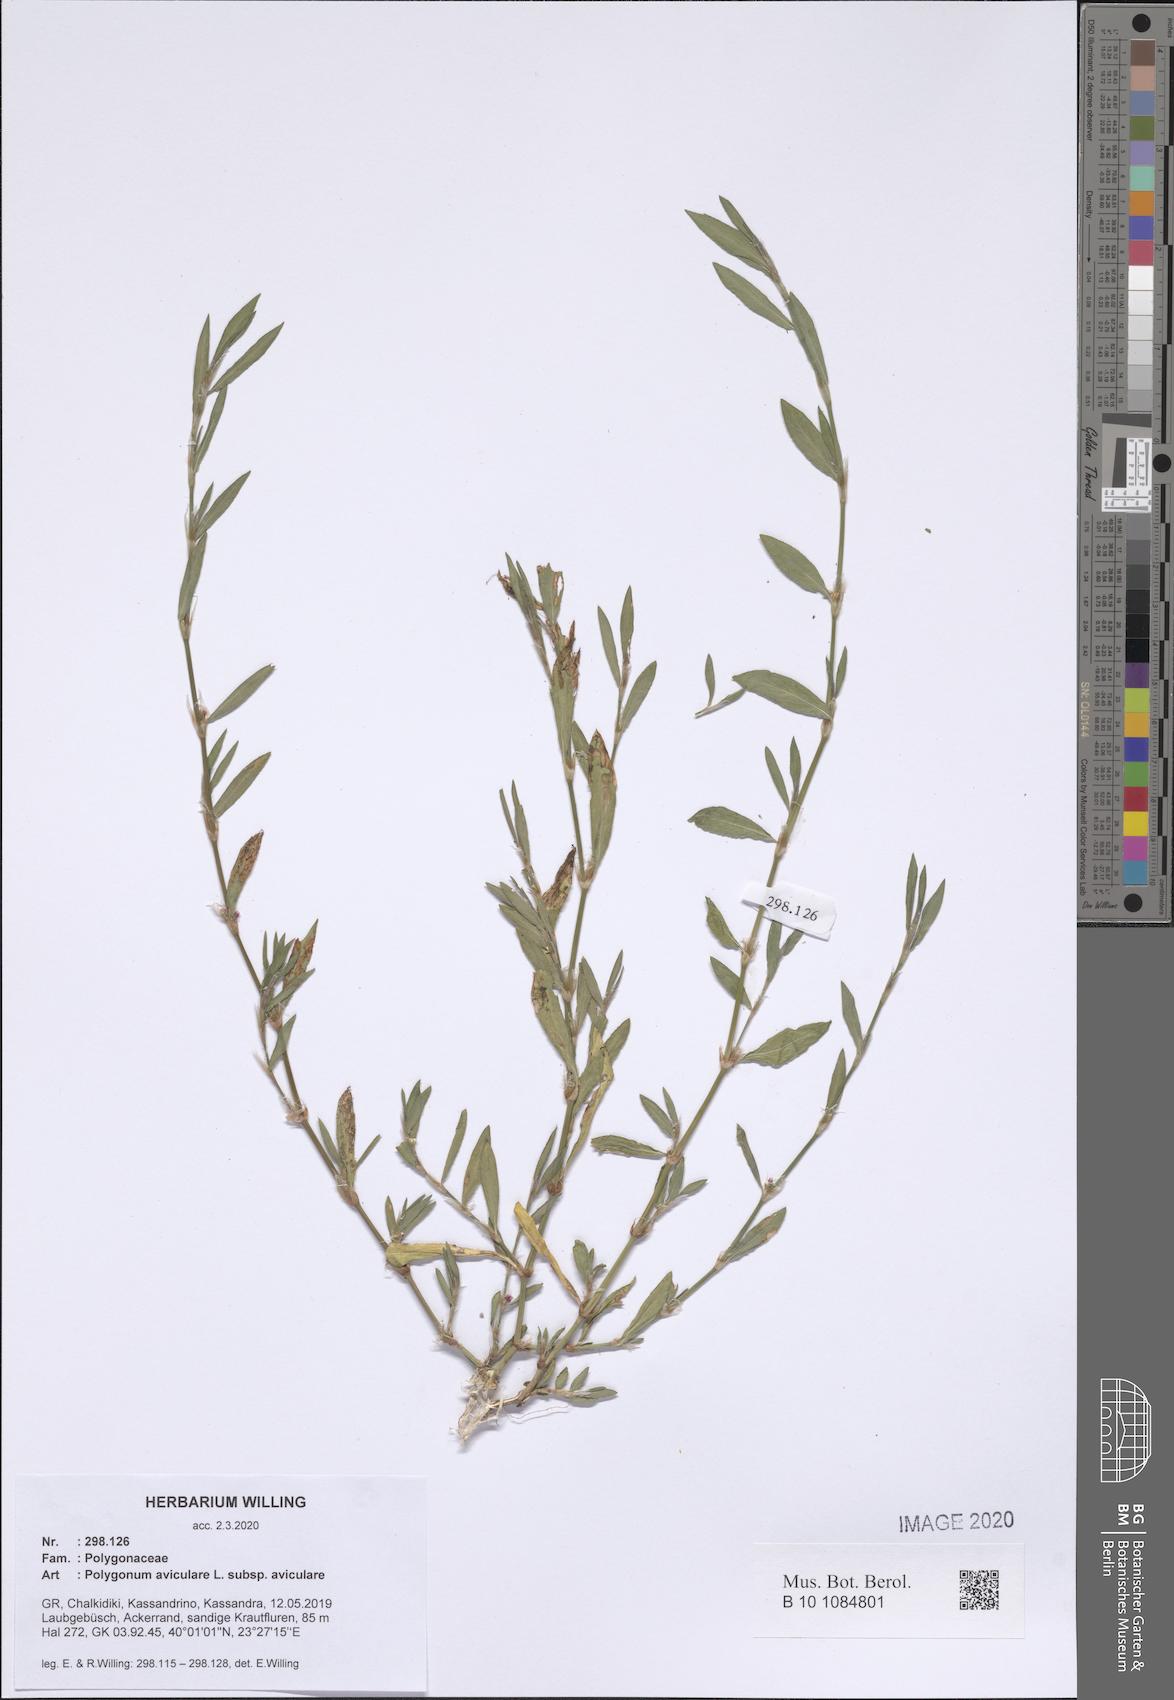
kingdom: Plantae
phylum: Tracheophyta
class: Magnoliopsida
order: Caryophyllales
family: Polygonaceae
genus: Polygonum
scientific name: Polygonum aviculare
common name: Prostrate knotweed
